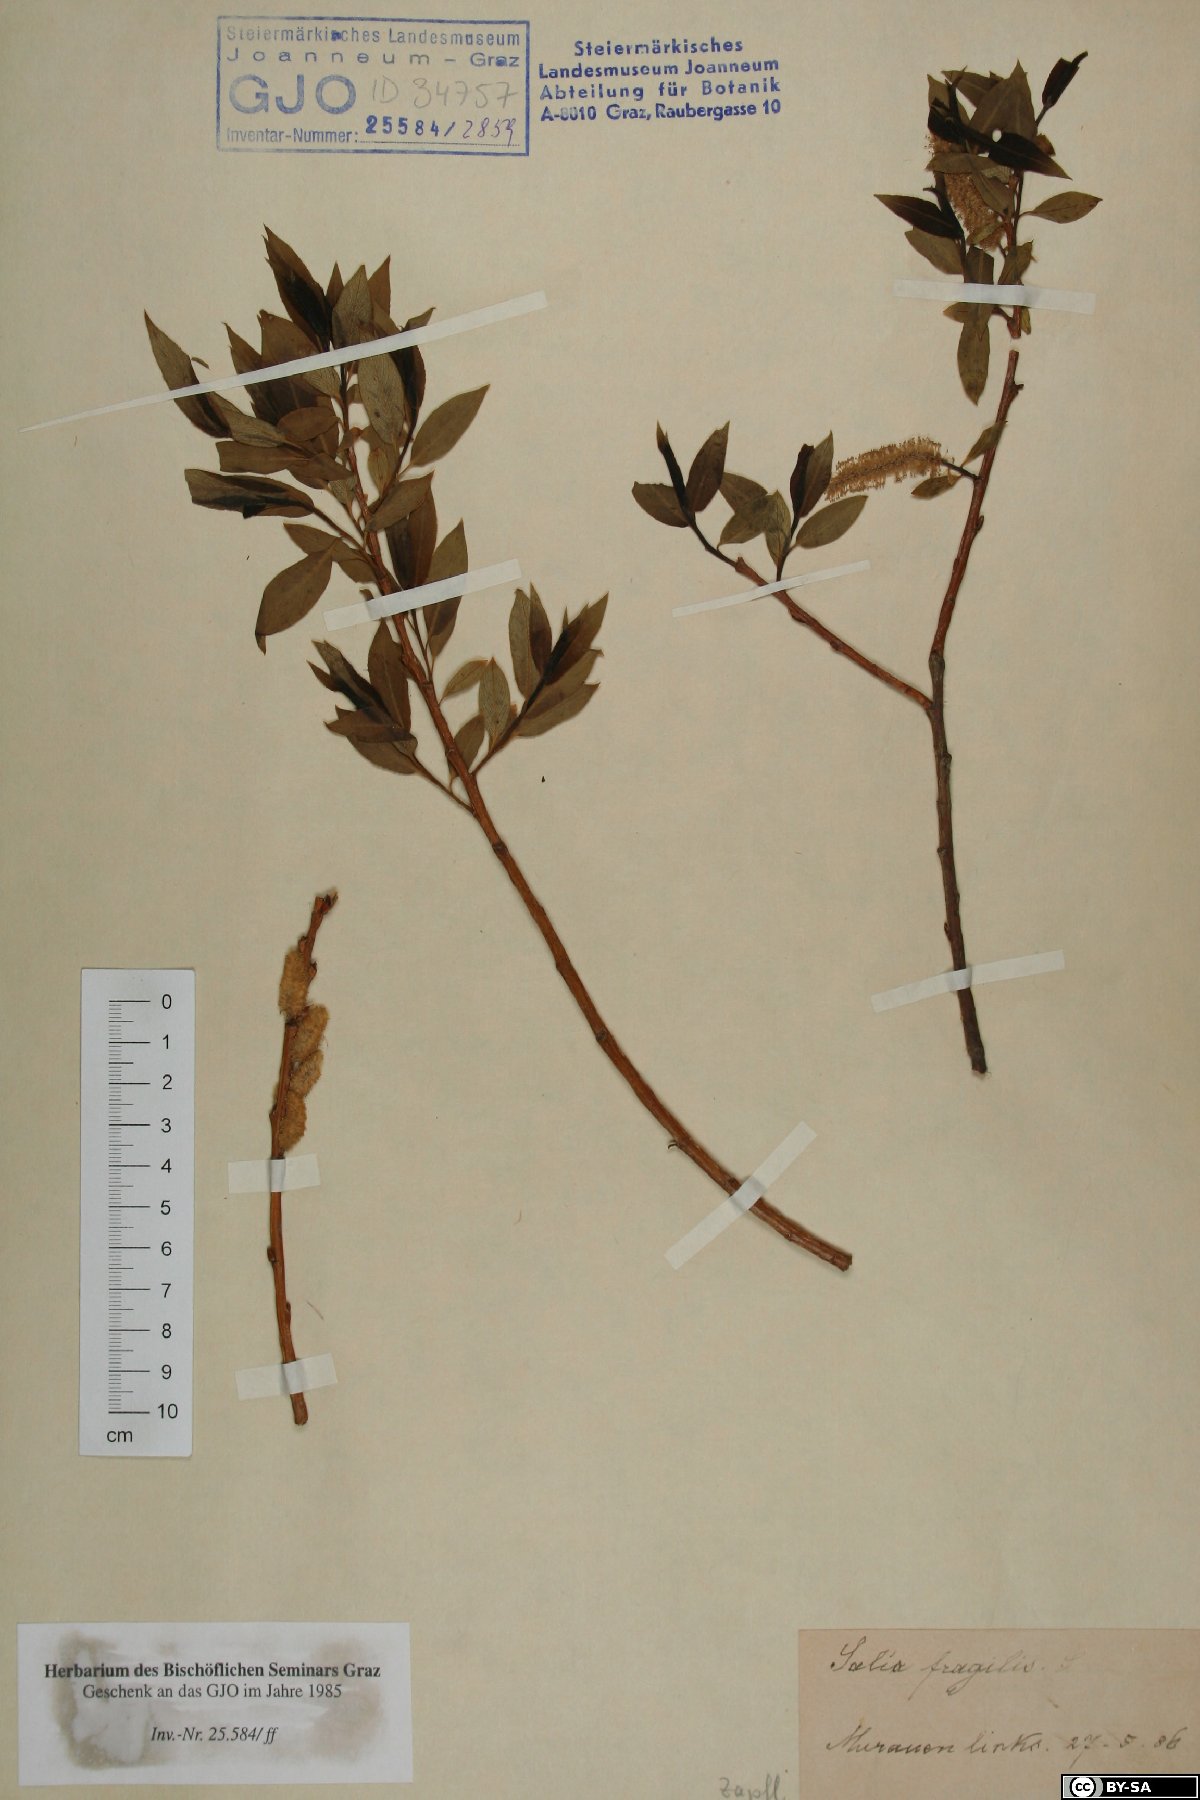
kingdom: Plantae
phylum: Tracheophyta
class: Magnoliopsida
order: Malpighiales
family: Salicaceae
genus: Salix
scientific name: Salix fragilis
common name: Crack willow
